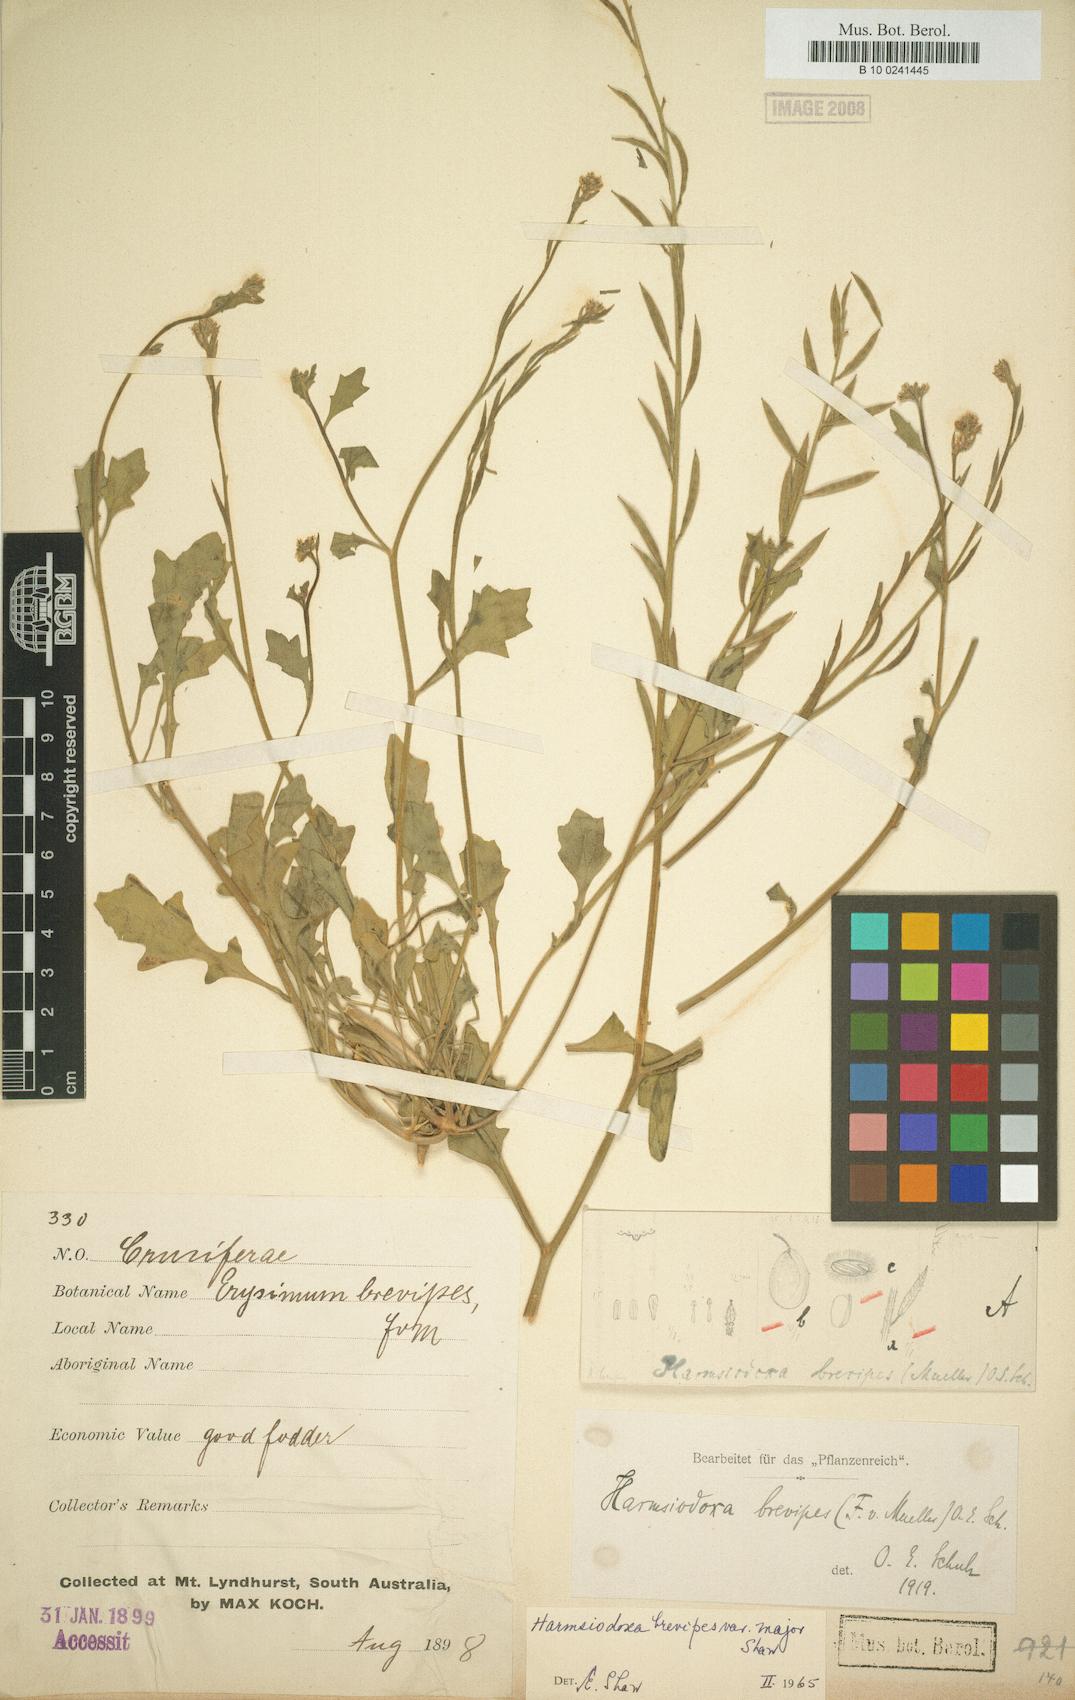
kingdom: Plantae
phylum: Tracheophyta
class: Magnoliopsida
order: Brassicales
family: Brassicaceae
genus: Harmsiodoxa
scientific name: Harmsiodoxa brevipes
